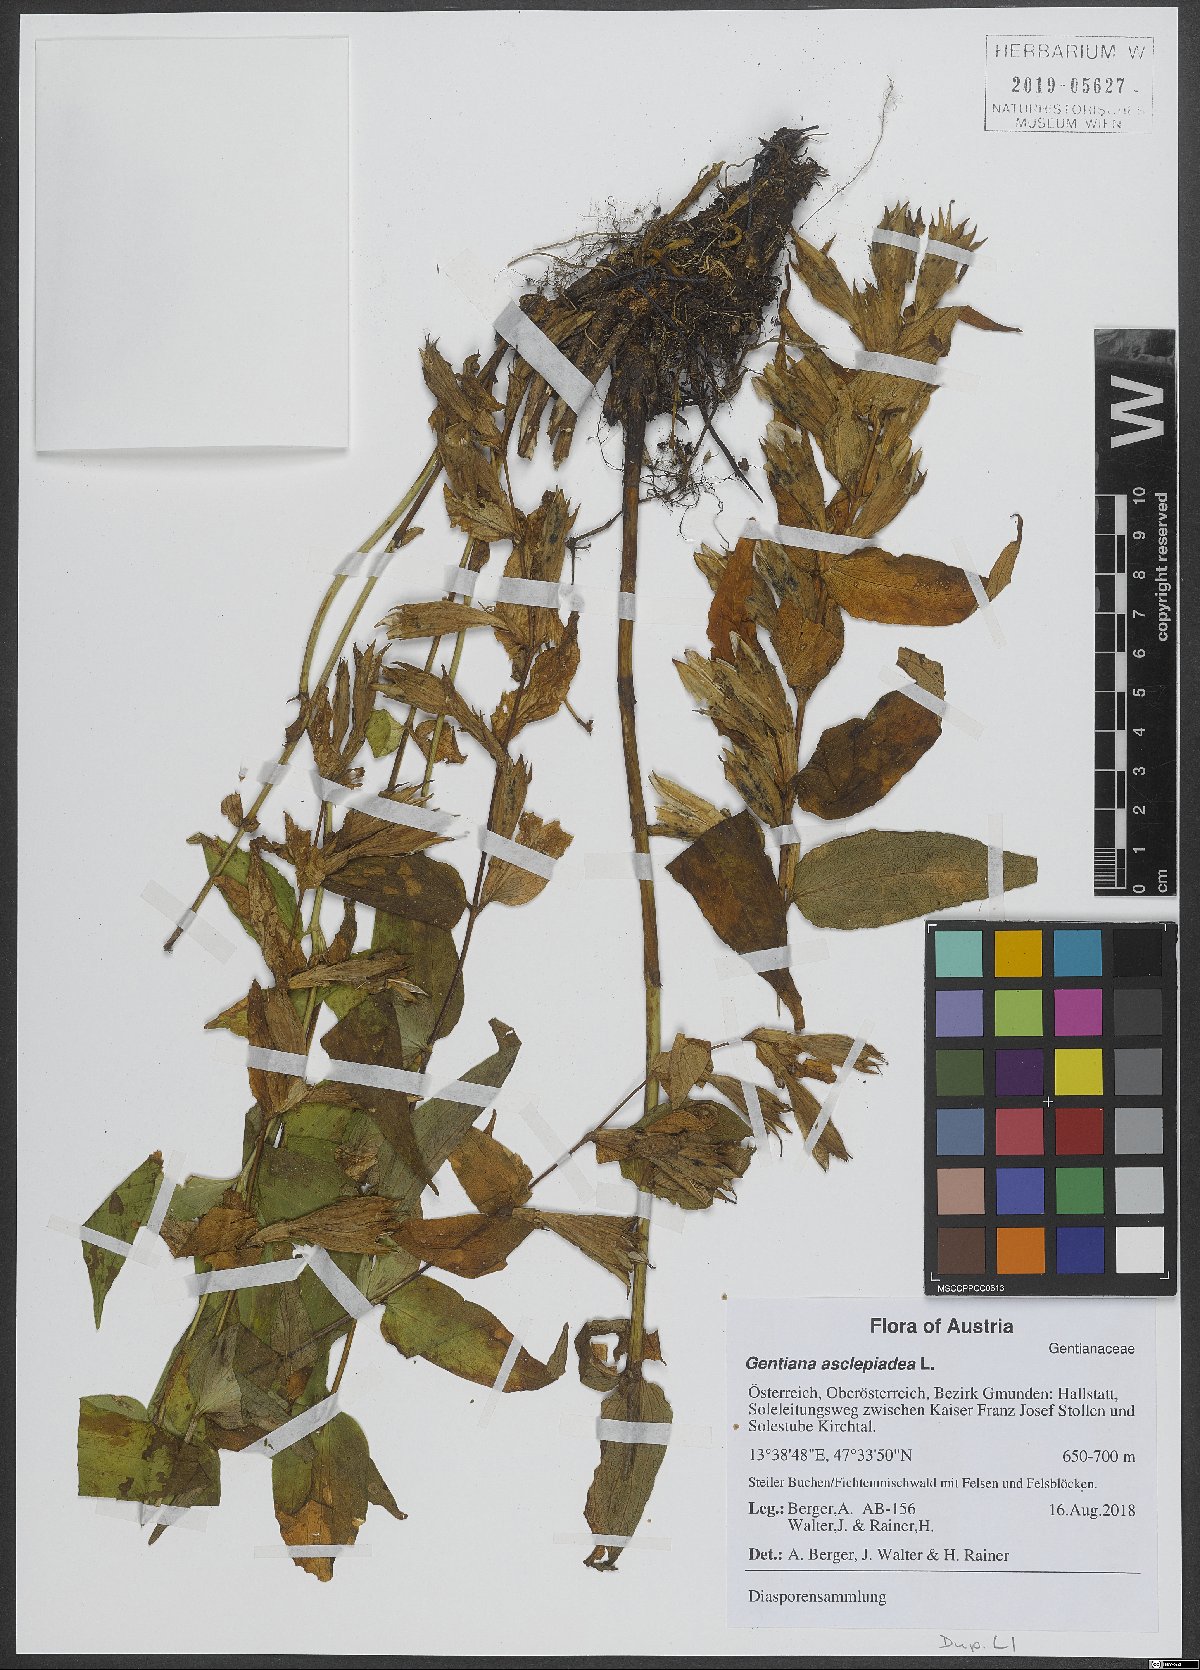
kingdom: Plantae
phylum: Tracheophyta
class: Magnoliopsida
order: Gentianales
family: Gentianaceae
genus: Gentiana
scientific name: Gentiana asclepiadea
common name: Willow gentian
